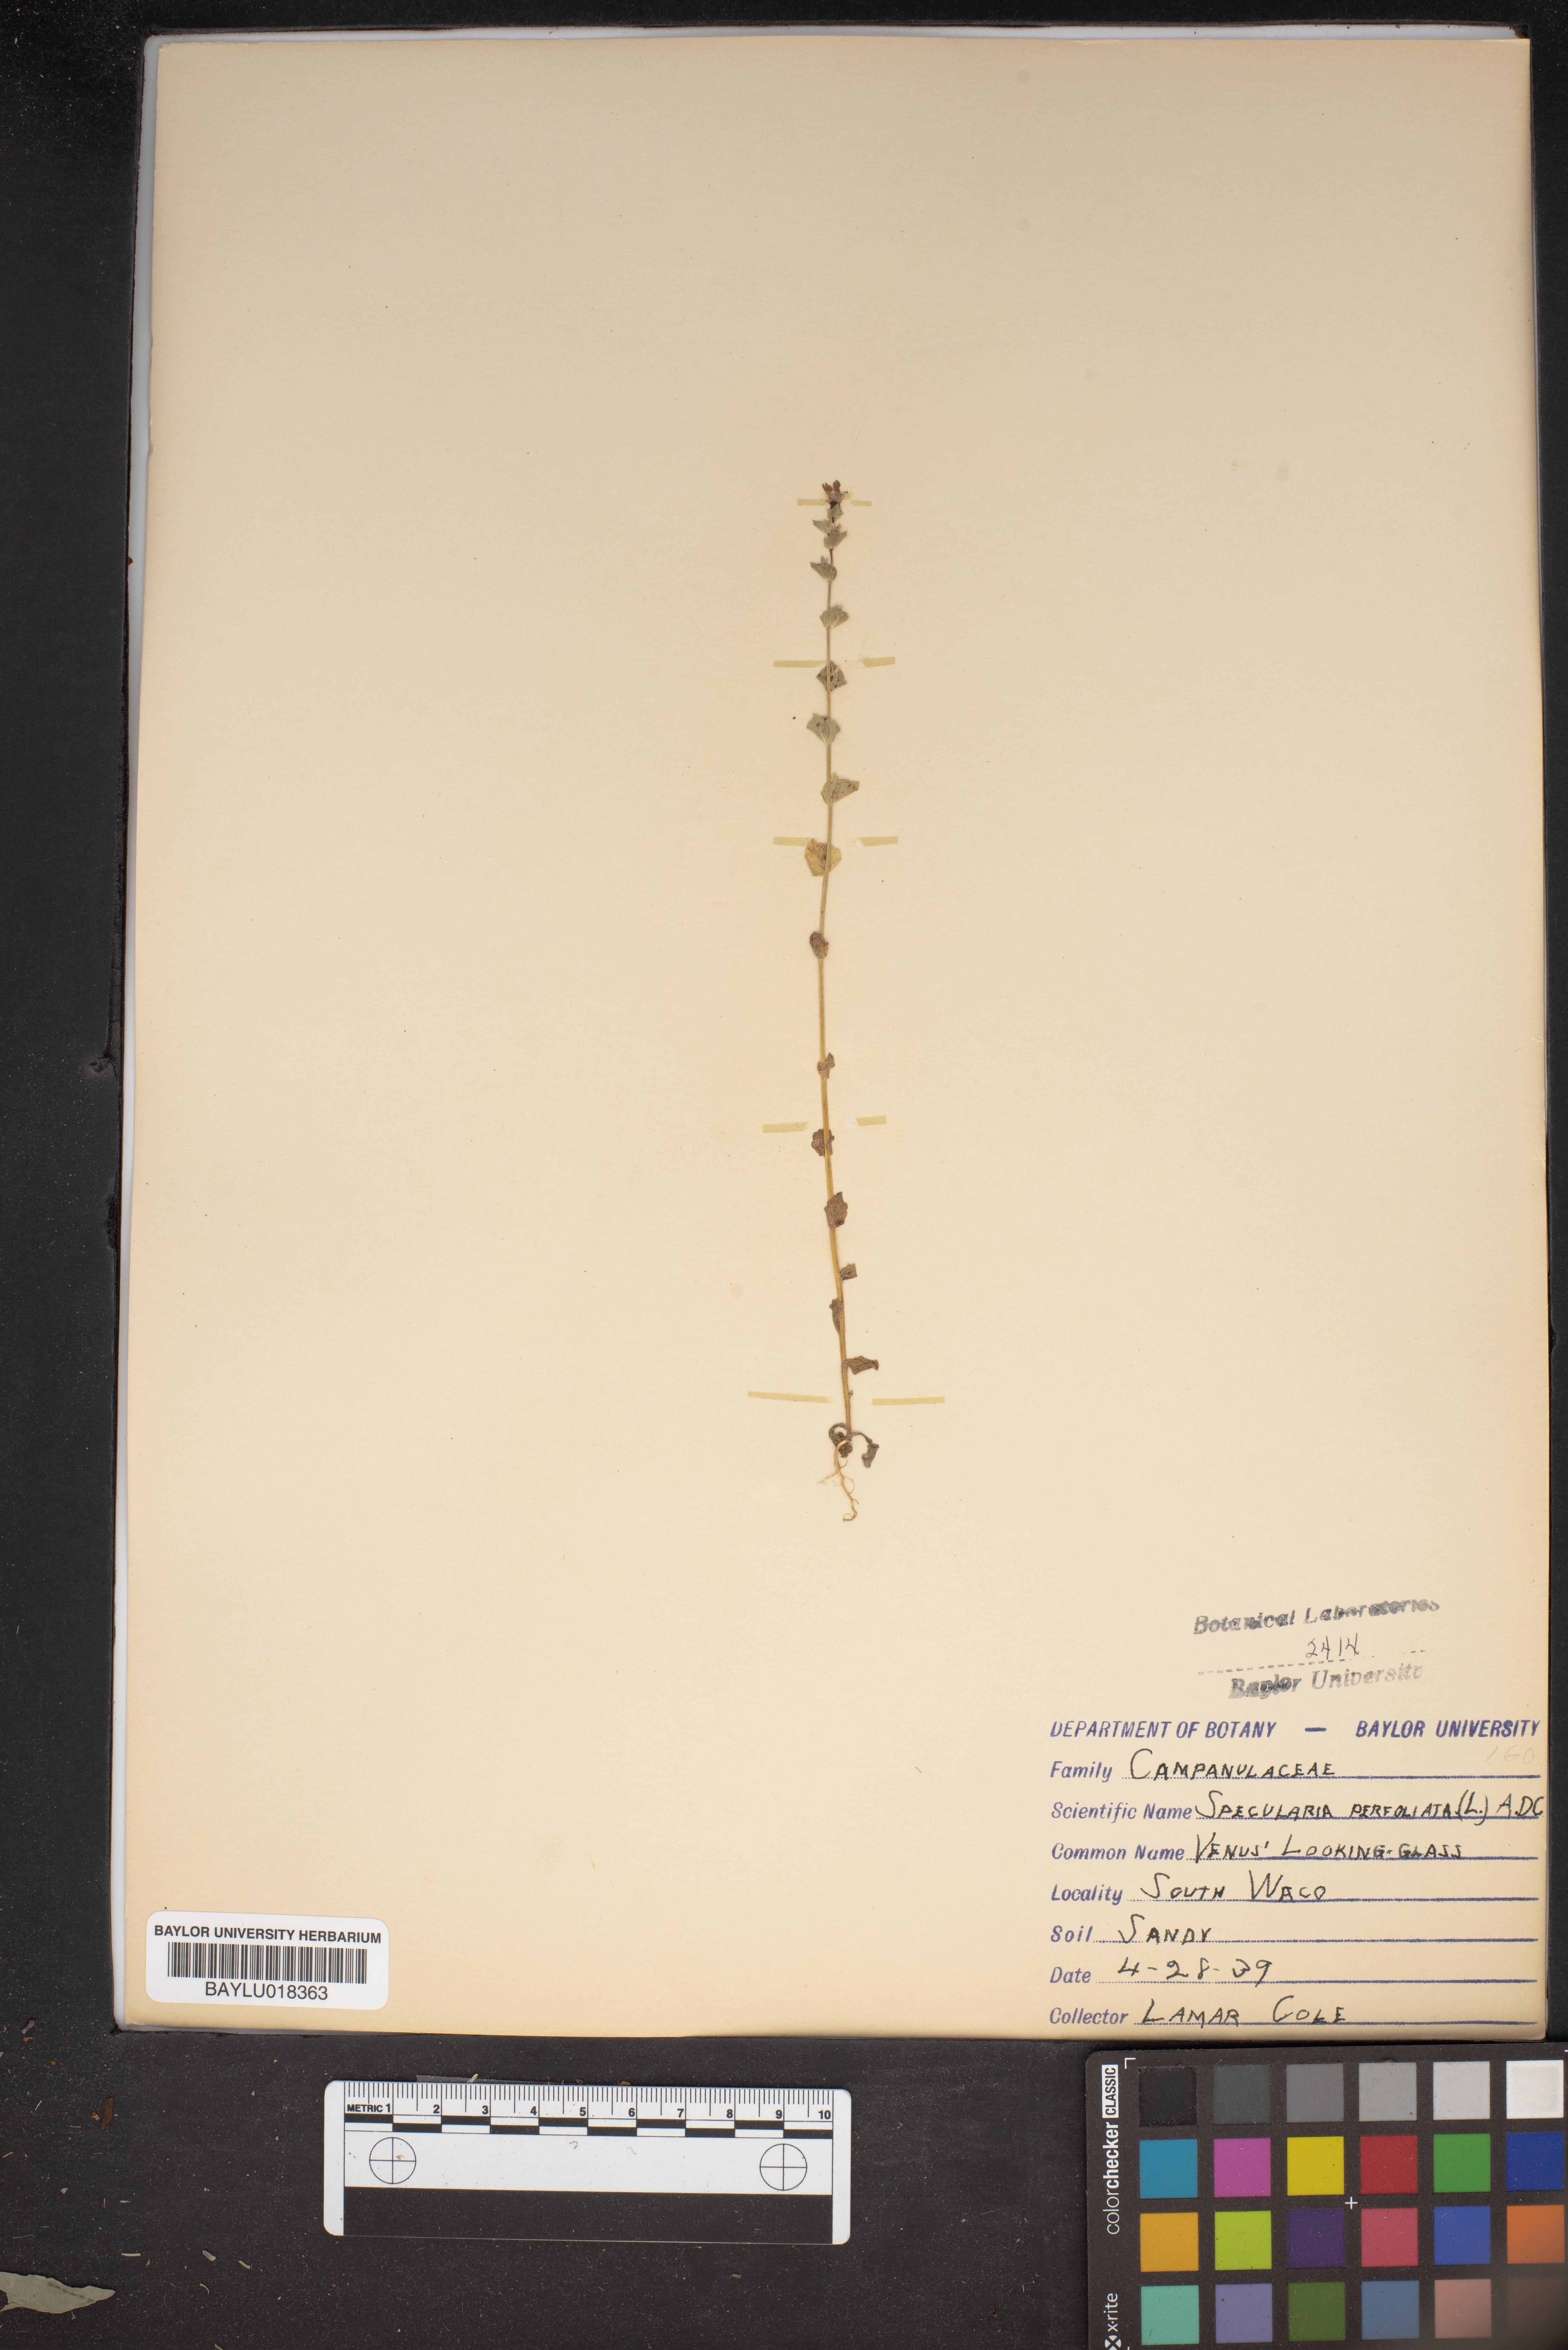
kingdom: Plantae
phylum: Tracheophyta
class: Magnoliopsida
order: Asterales
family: Campanulaceae
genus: Triodanis
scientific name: Triodanis perfoliata
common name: Clasping venus' looking-glass
